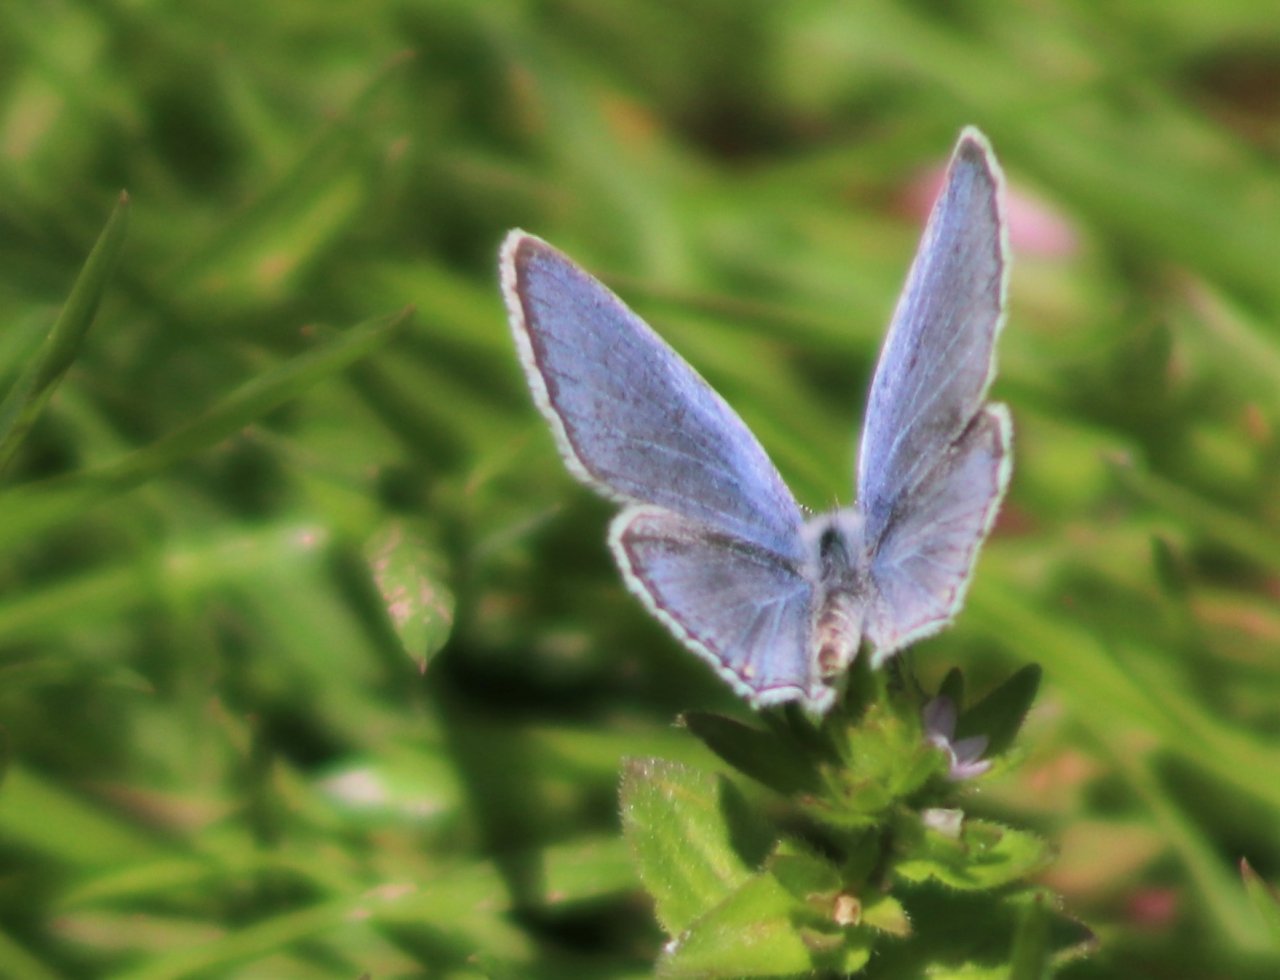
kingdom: Animalia
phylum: Arthropoda
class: Insecta
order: Lepidoptera
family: Lycaenidae
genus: Elkalyce
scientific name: Elkalyce comyntas
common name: Eastern Tailed-Blue
